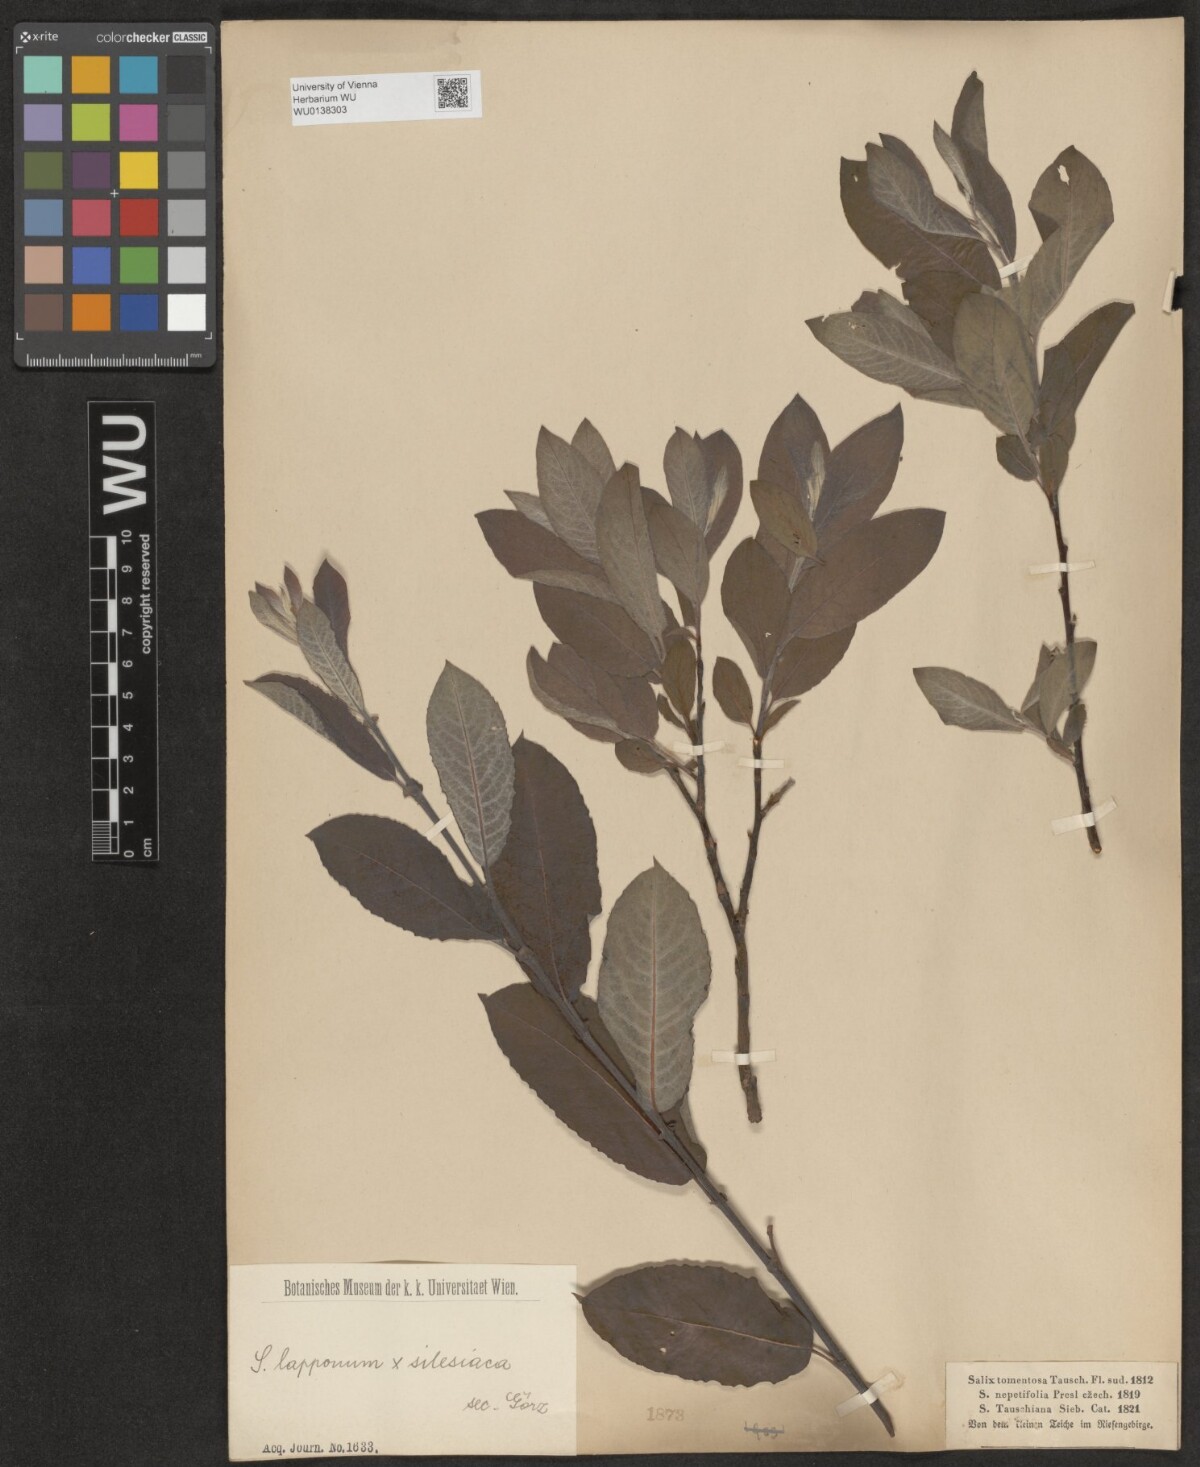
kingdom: Plantae
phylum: Tracheophyta
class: Magnoliopsida
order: Malpighiales
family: Salicaceae
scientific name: Salicaceae
